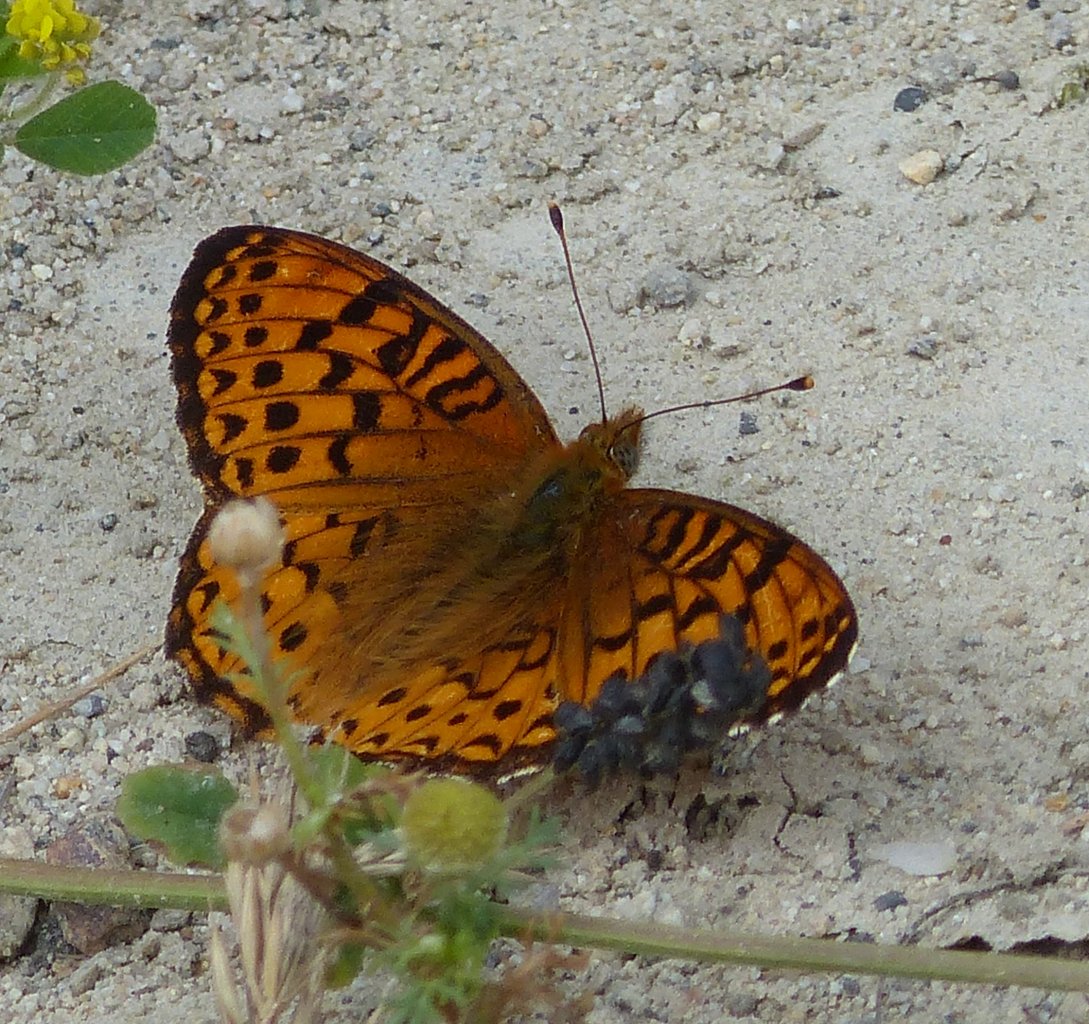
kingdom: Animalia
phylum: Arthropoda
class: Insecta
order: Lepidoptera
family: Nymphalidae
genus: Speyeria
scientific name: Speyeria zerene
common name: Zerene Fritillary
